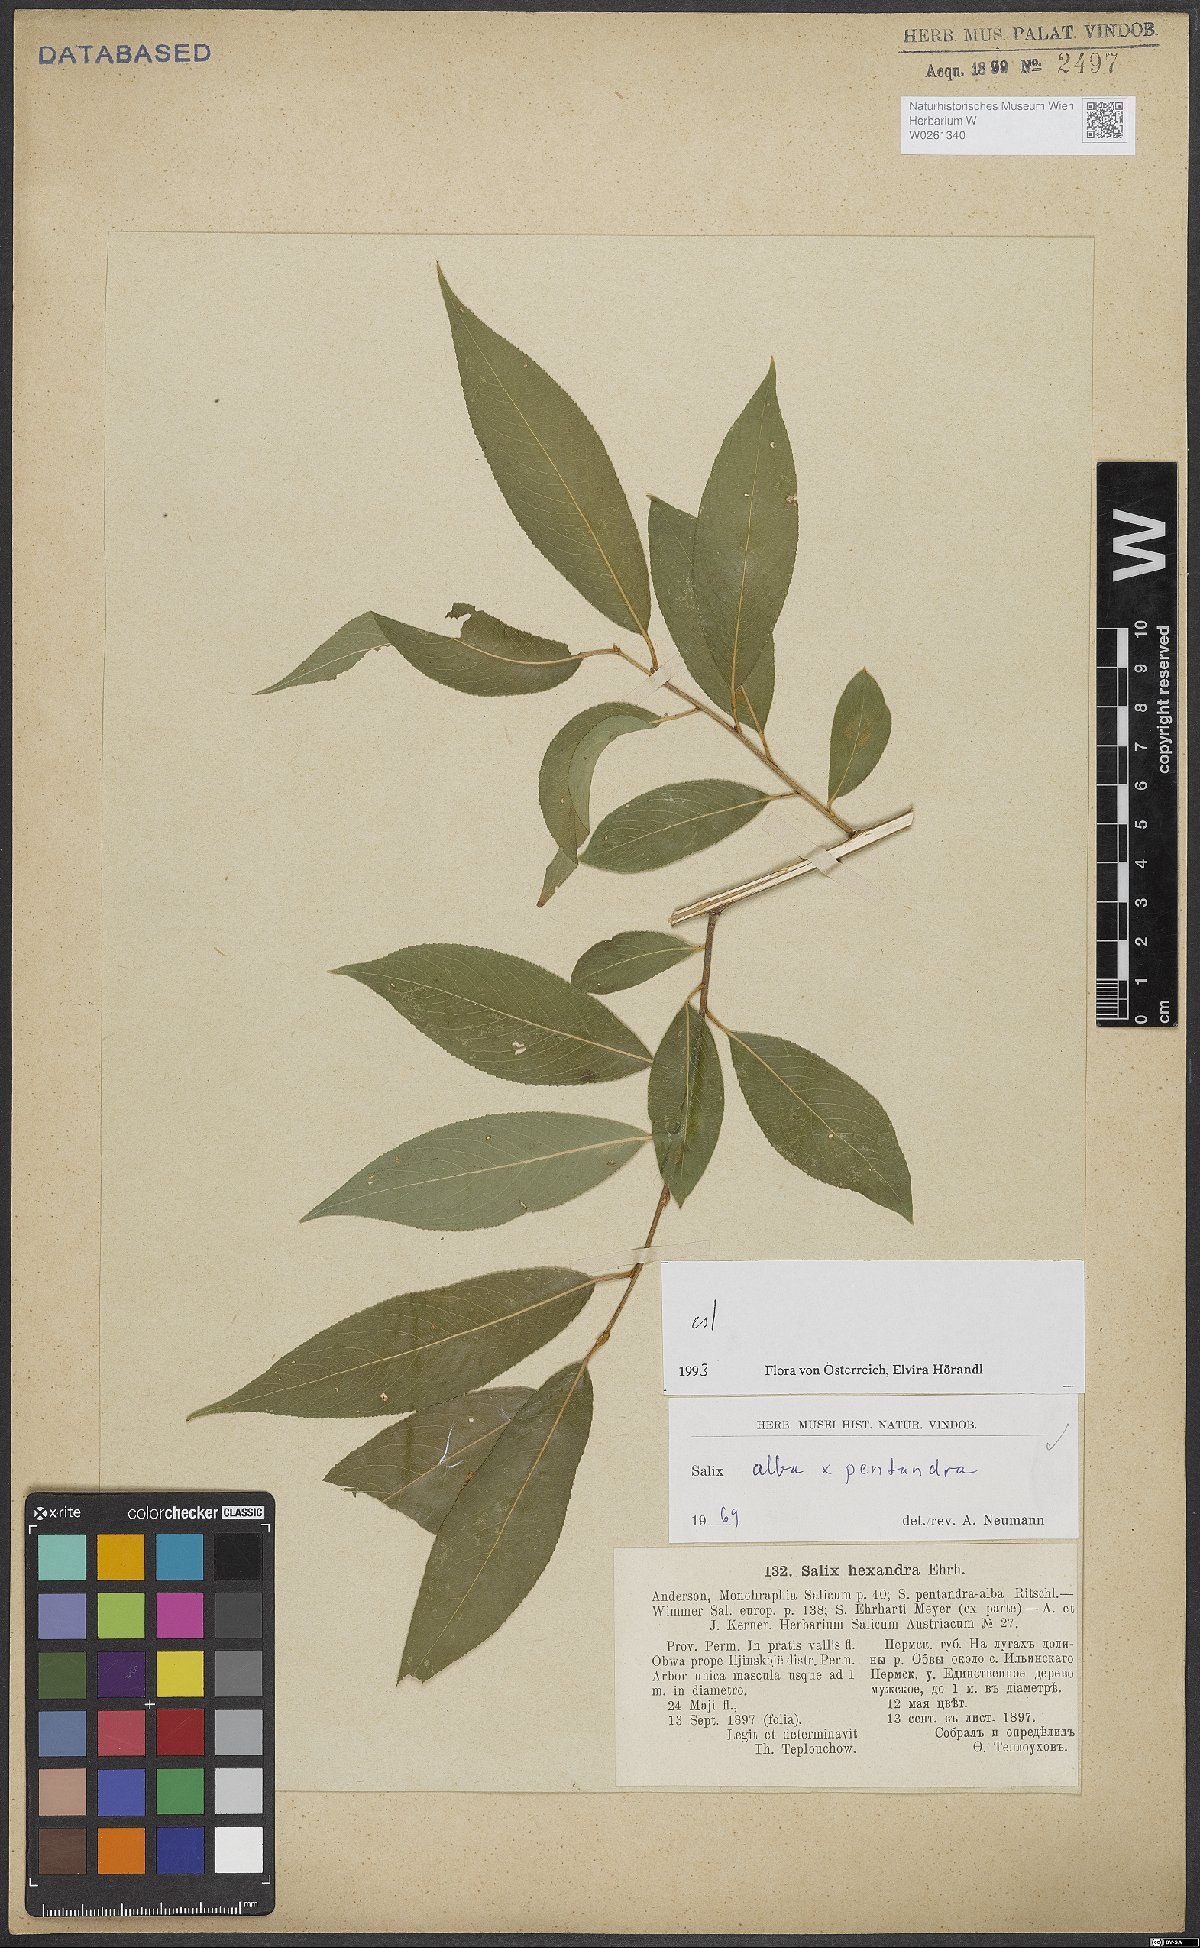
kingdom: Plantae
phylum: Tracheophyta
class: Magnoliopsida
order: Malpighiales
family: Salicaceae
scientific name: Salicaceae
